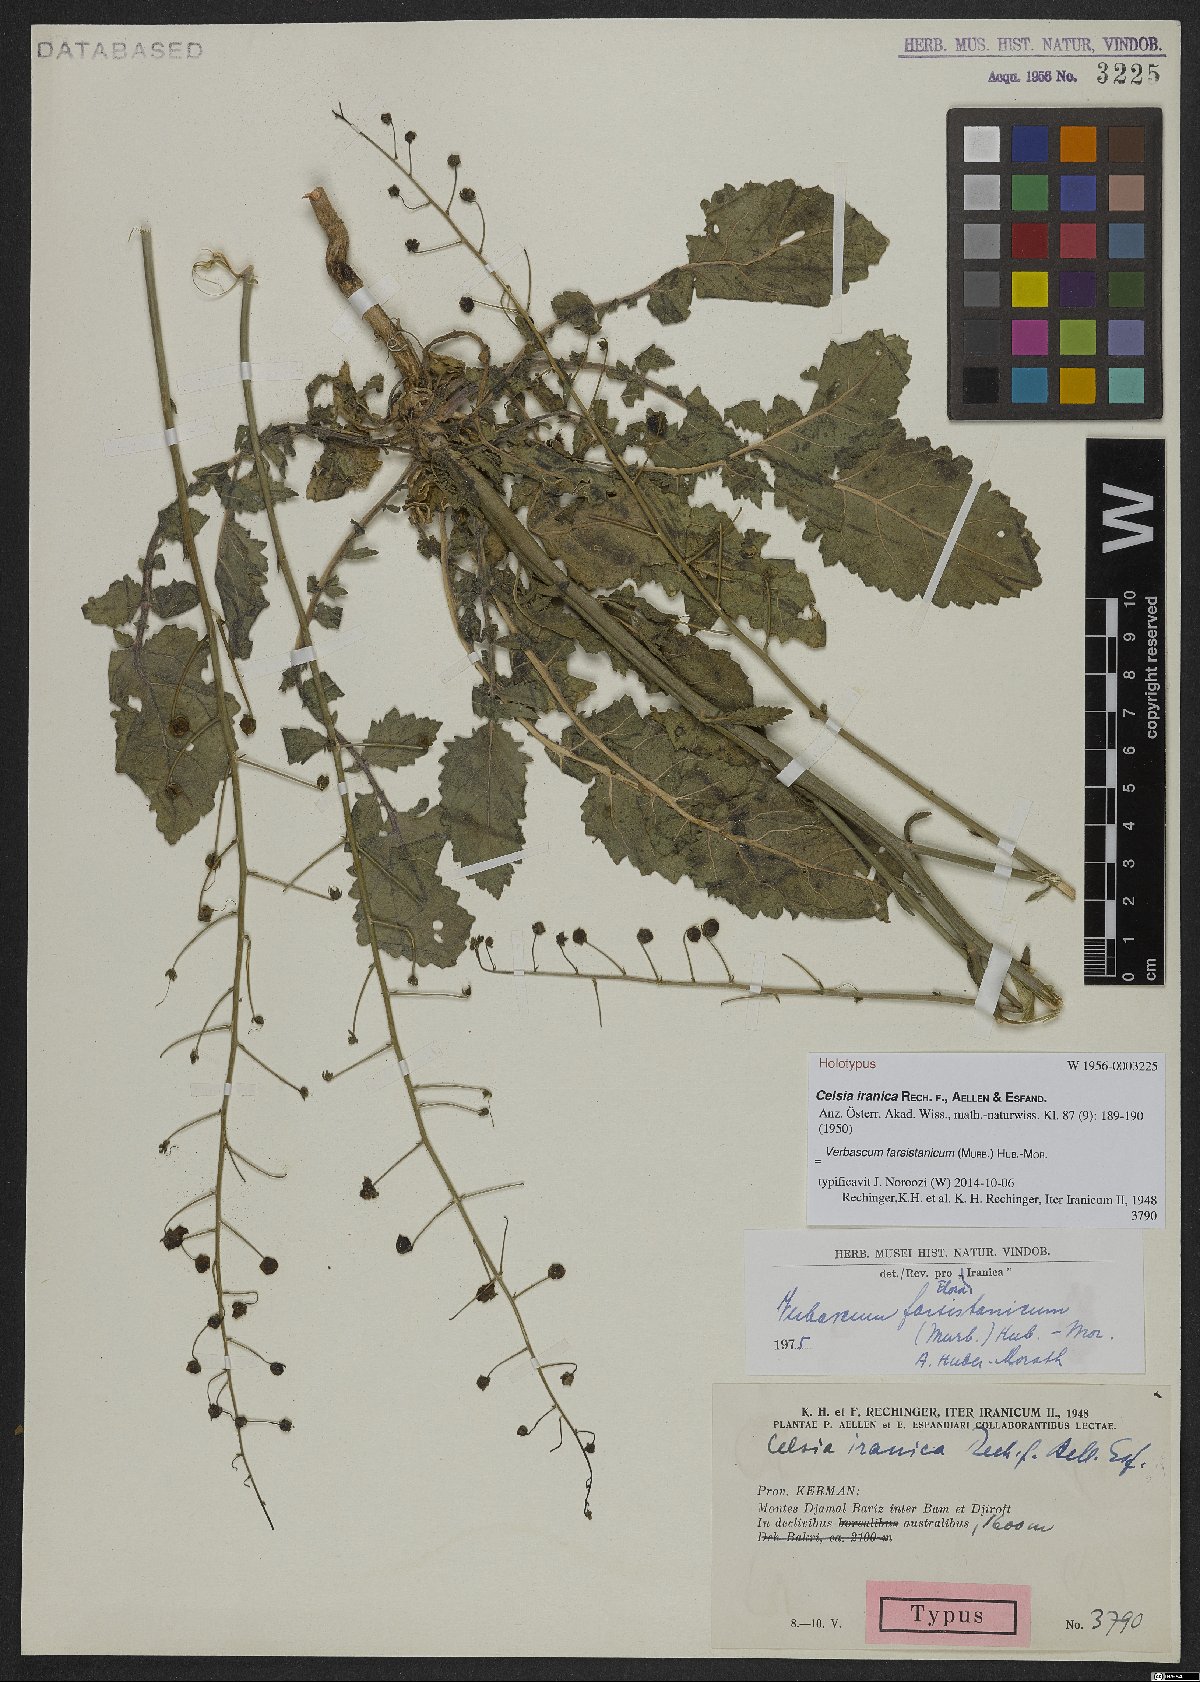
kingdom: Plantae
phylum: Tracheophyta
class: Magnoliopsida
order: Lamiales
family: Scrophulariaceae
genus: Verbascum
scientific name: Verbascum farsistanicum
